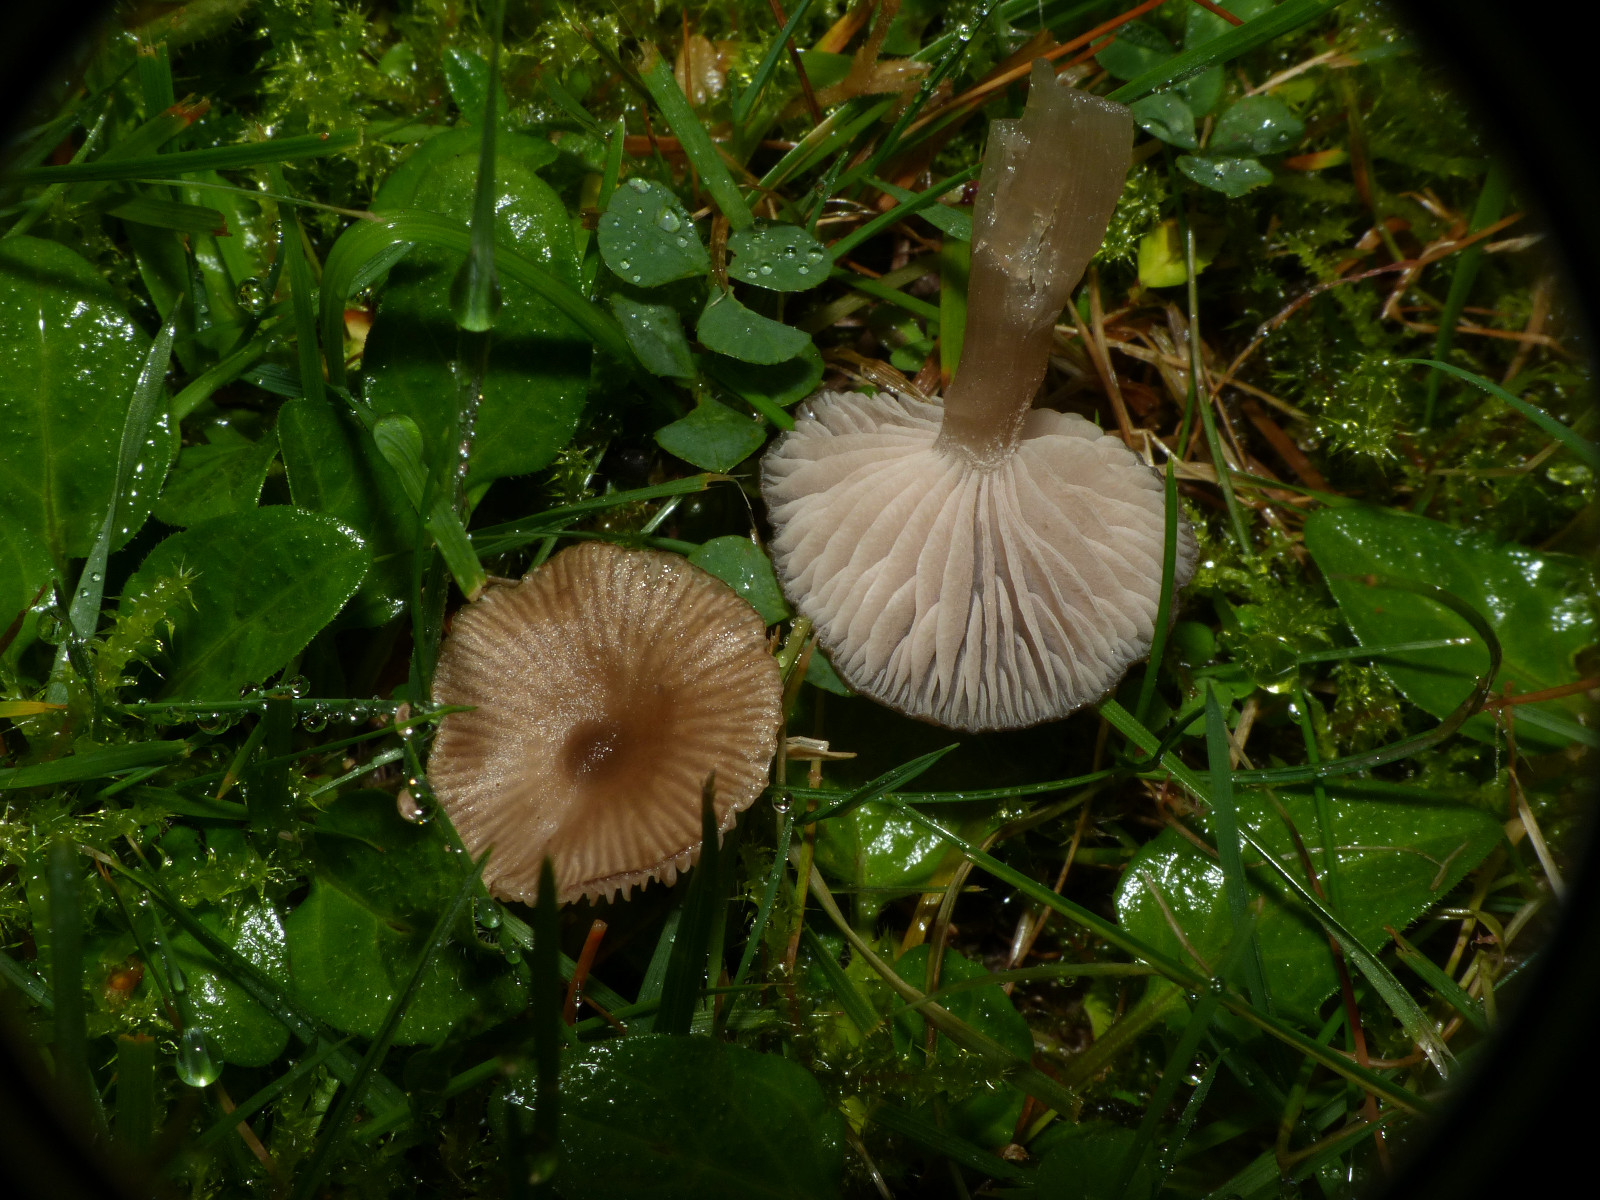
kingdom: Fungi
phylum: Basidiomycota
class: Agaricomycetes
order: Agaricales
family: Entolomataceae
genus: Entoloma
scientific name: Entoloma sericeum
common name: silkeglinsende rødblad
